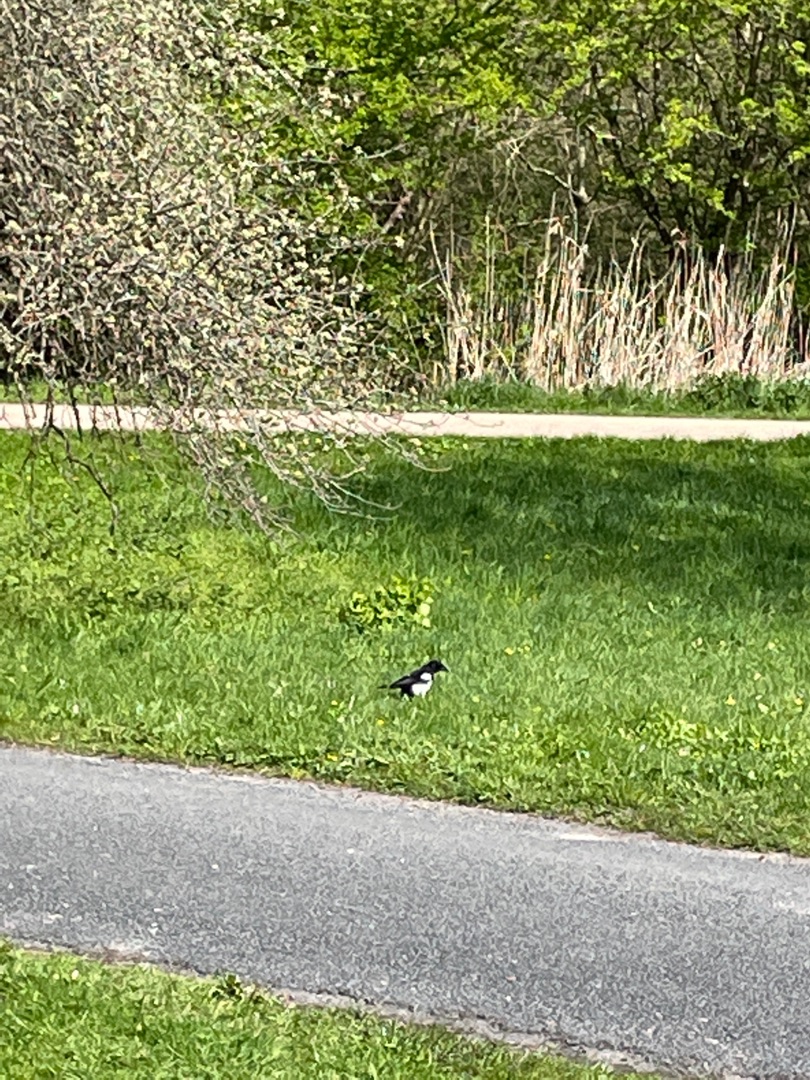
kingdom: Animalia
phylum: Chordata
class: Aves
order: Passeriformes
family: Corvidae
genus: Pica
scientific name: Pica pica
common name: Husskade
